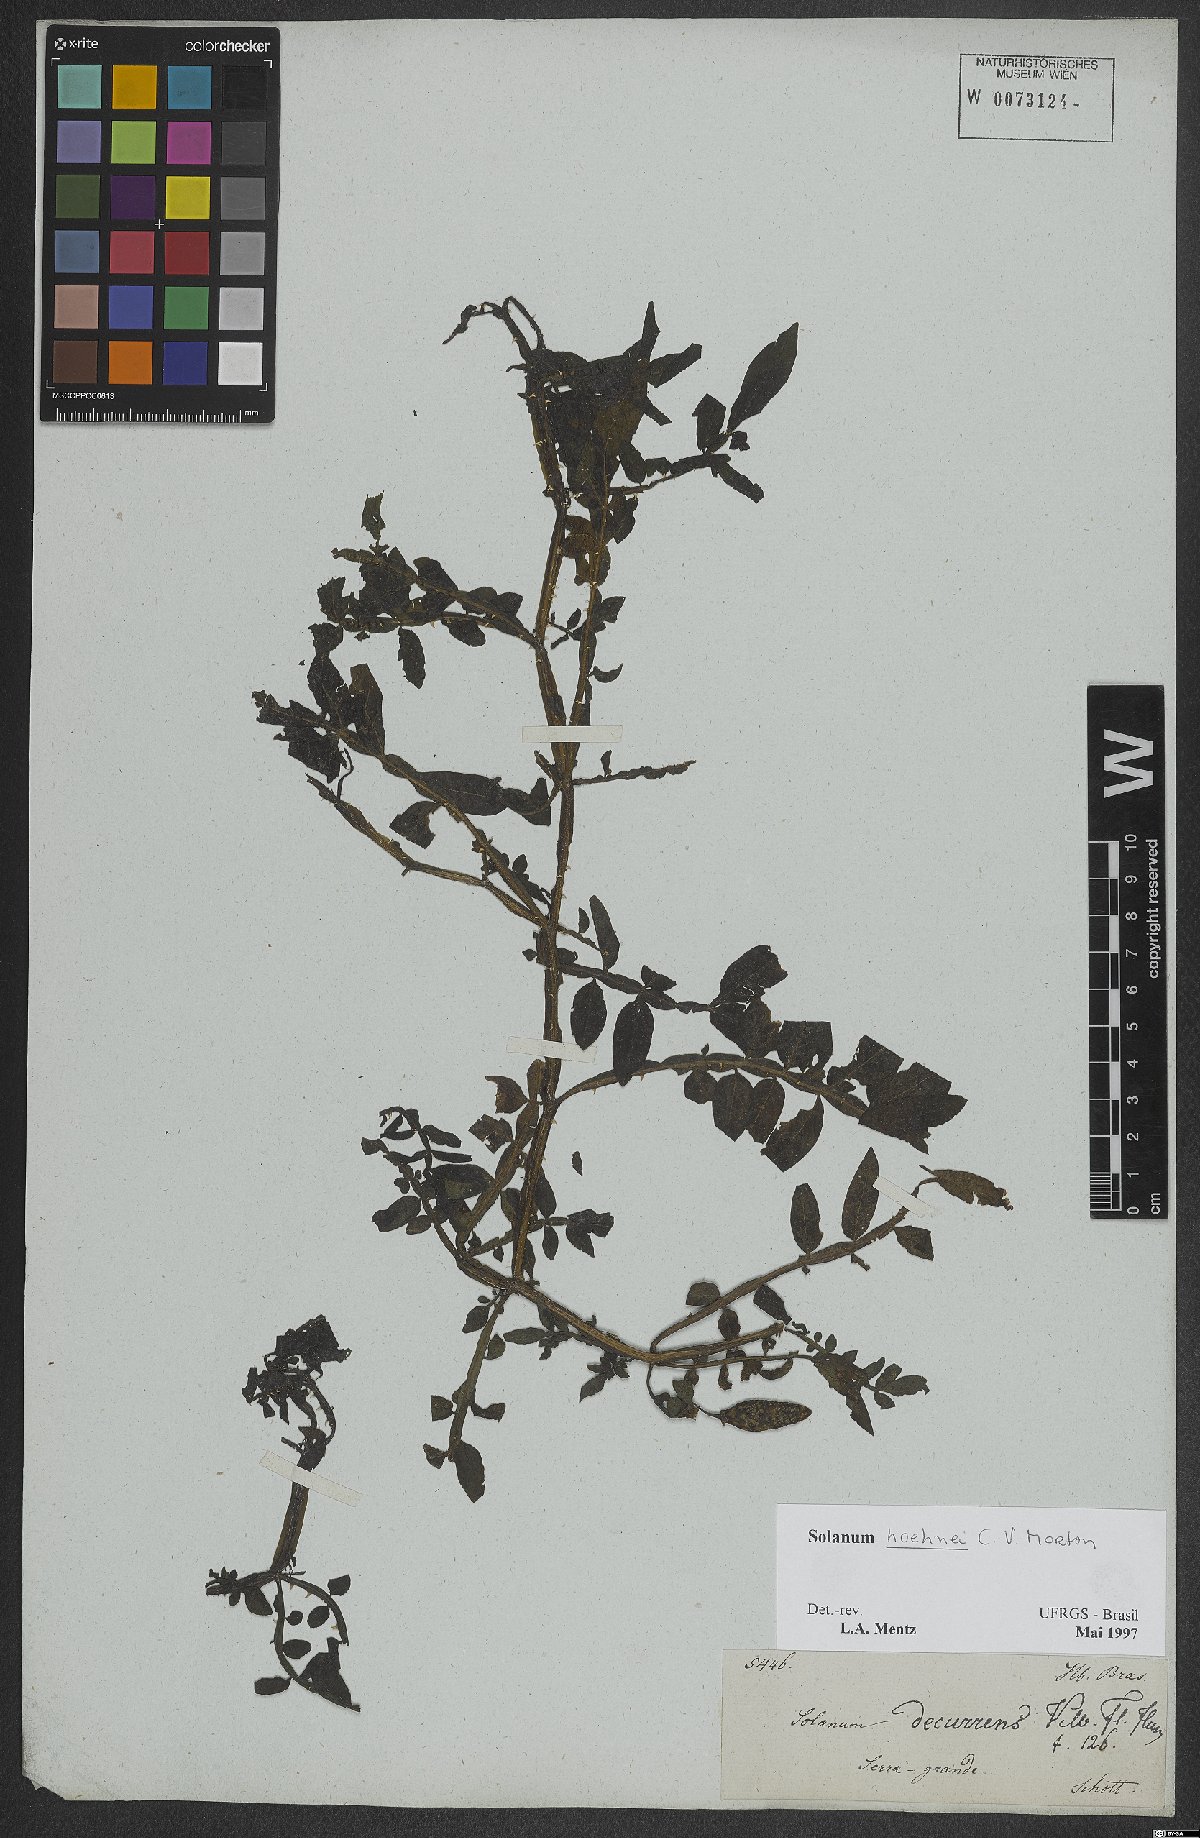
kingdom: Plantae
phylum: Tracheophyta
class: Magnoliopsida
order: Solanales
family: Solanaceae
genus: Solanum
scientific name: Solanum hoehnei
